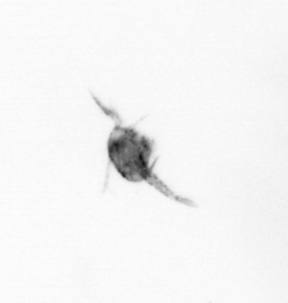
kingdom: Animalia
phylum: Arthropoda
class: Copepoda
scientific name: Copepoda
